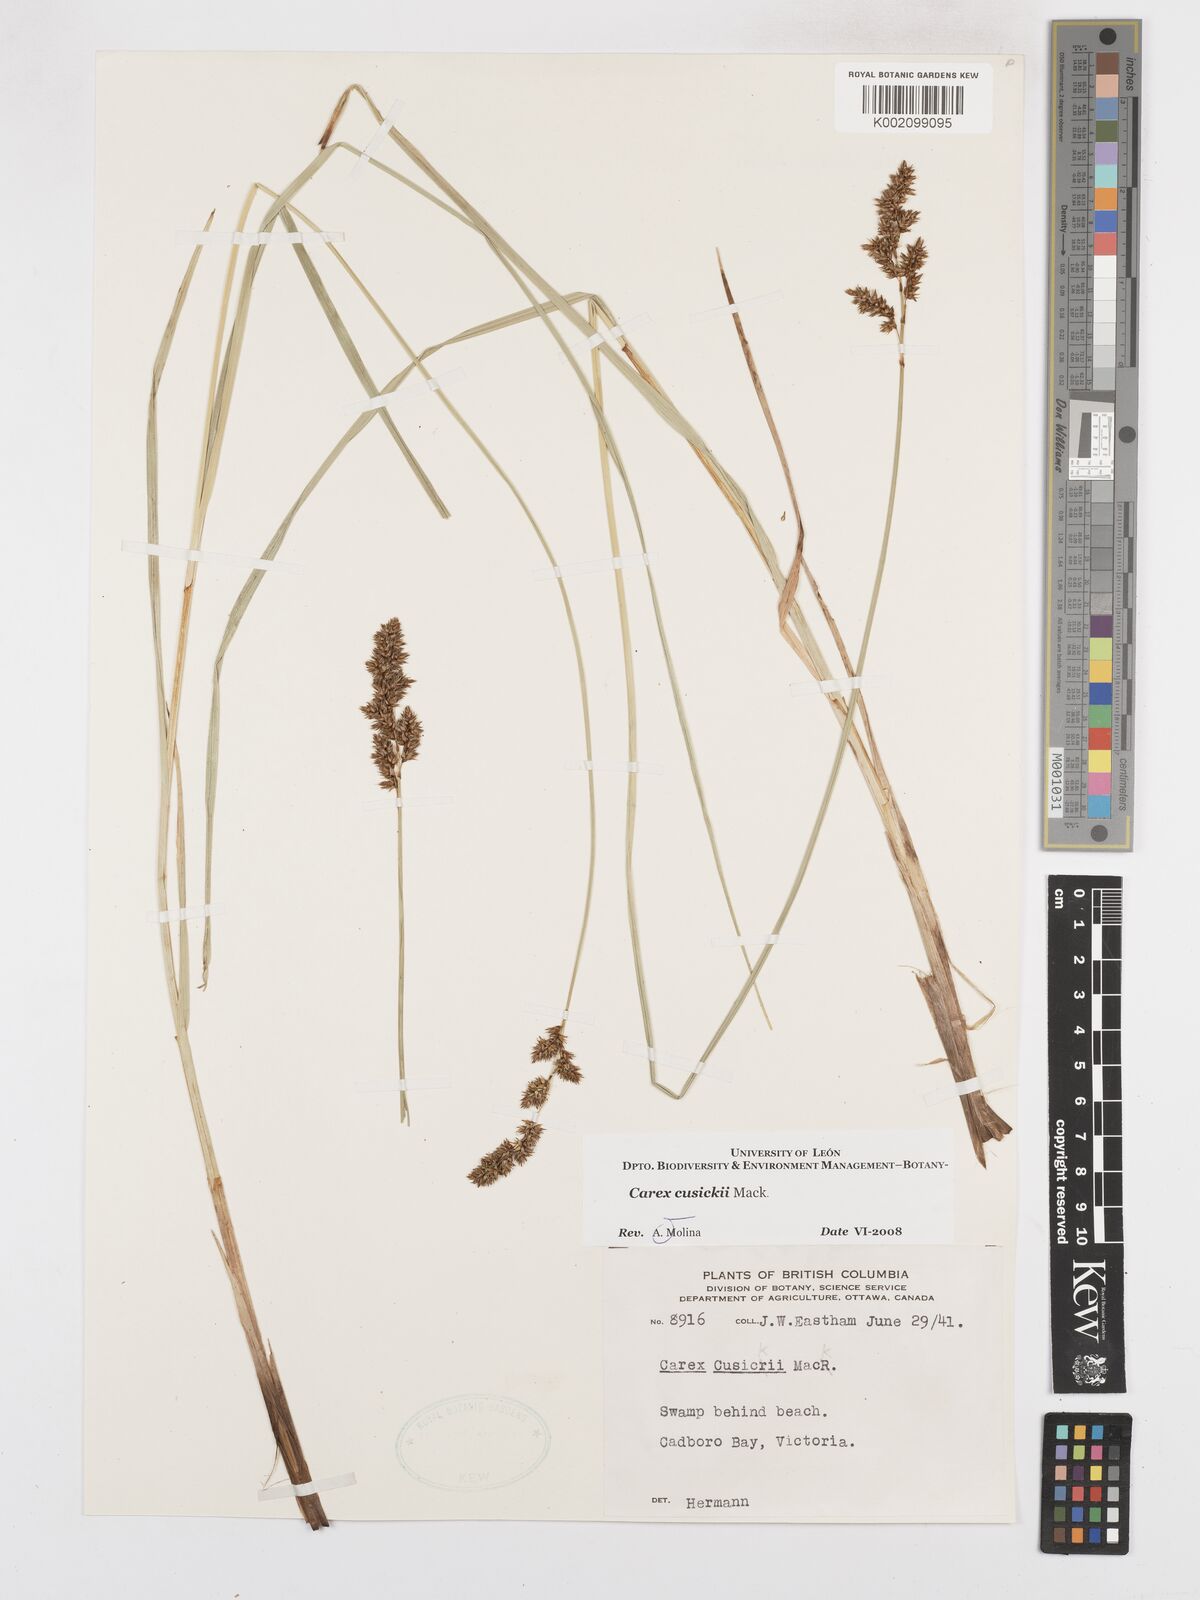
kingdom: Plantae
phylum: Tracheophyta
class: Liliopsida
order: Poales
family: Cyperaceae
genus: Carex
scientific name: Carex cusickii
